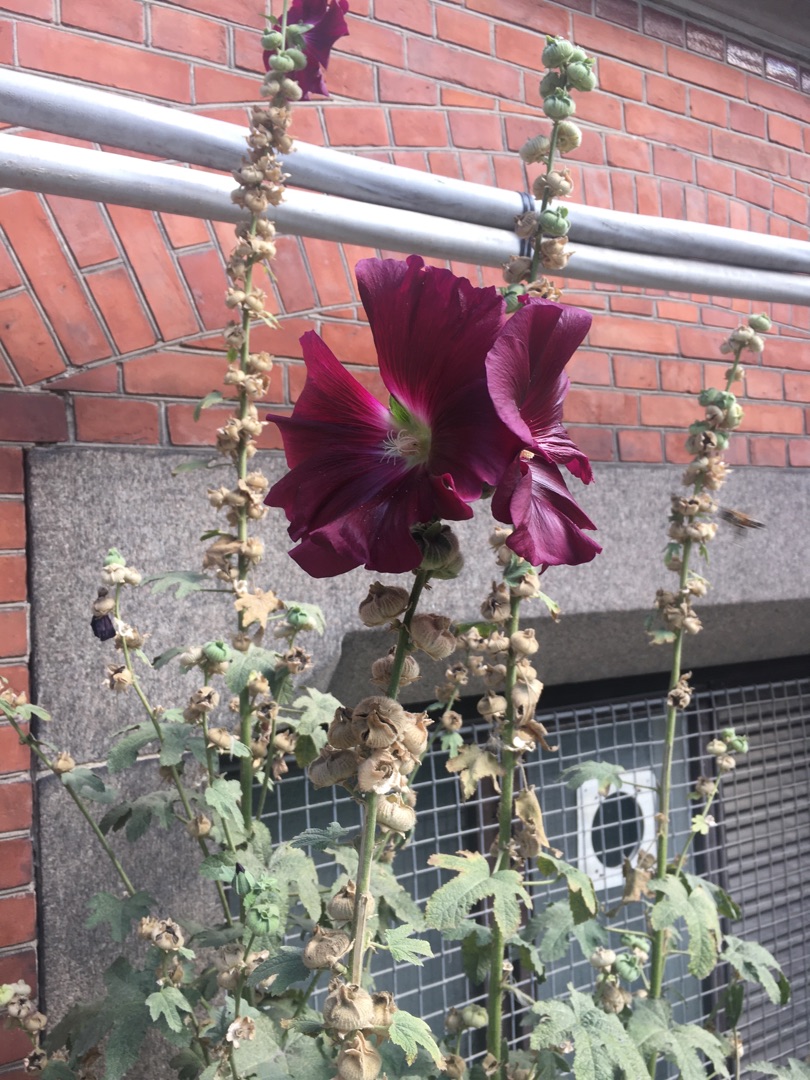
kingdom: Plantae
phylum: Tracheophyta
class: Magnoliopsida
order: Malvales
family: Malvaceae
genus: Alcea
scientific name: Alcea rosea
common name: Have-stokrose
